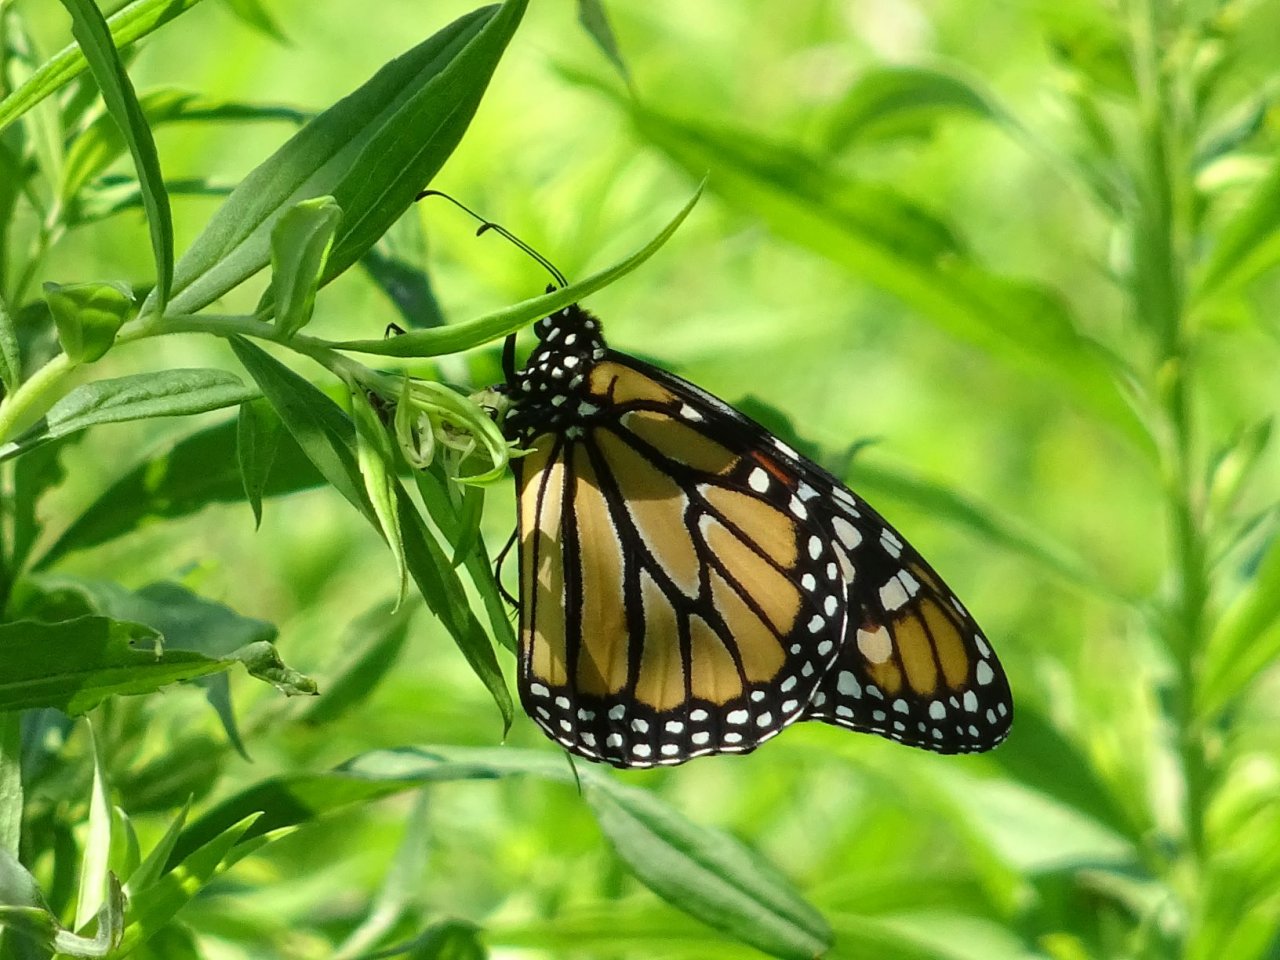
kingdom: Animalia
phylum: Arthropoda
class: Insecta
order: Lepidoptera
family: Nymphalidae
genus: Danaus
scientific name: Danaus plexippus
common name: Monarch
